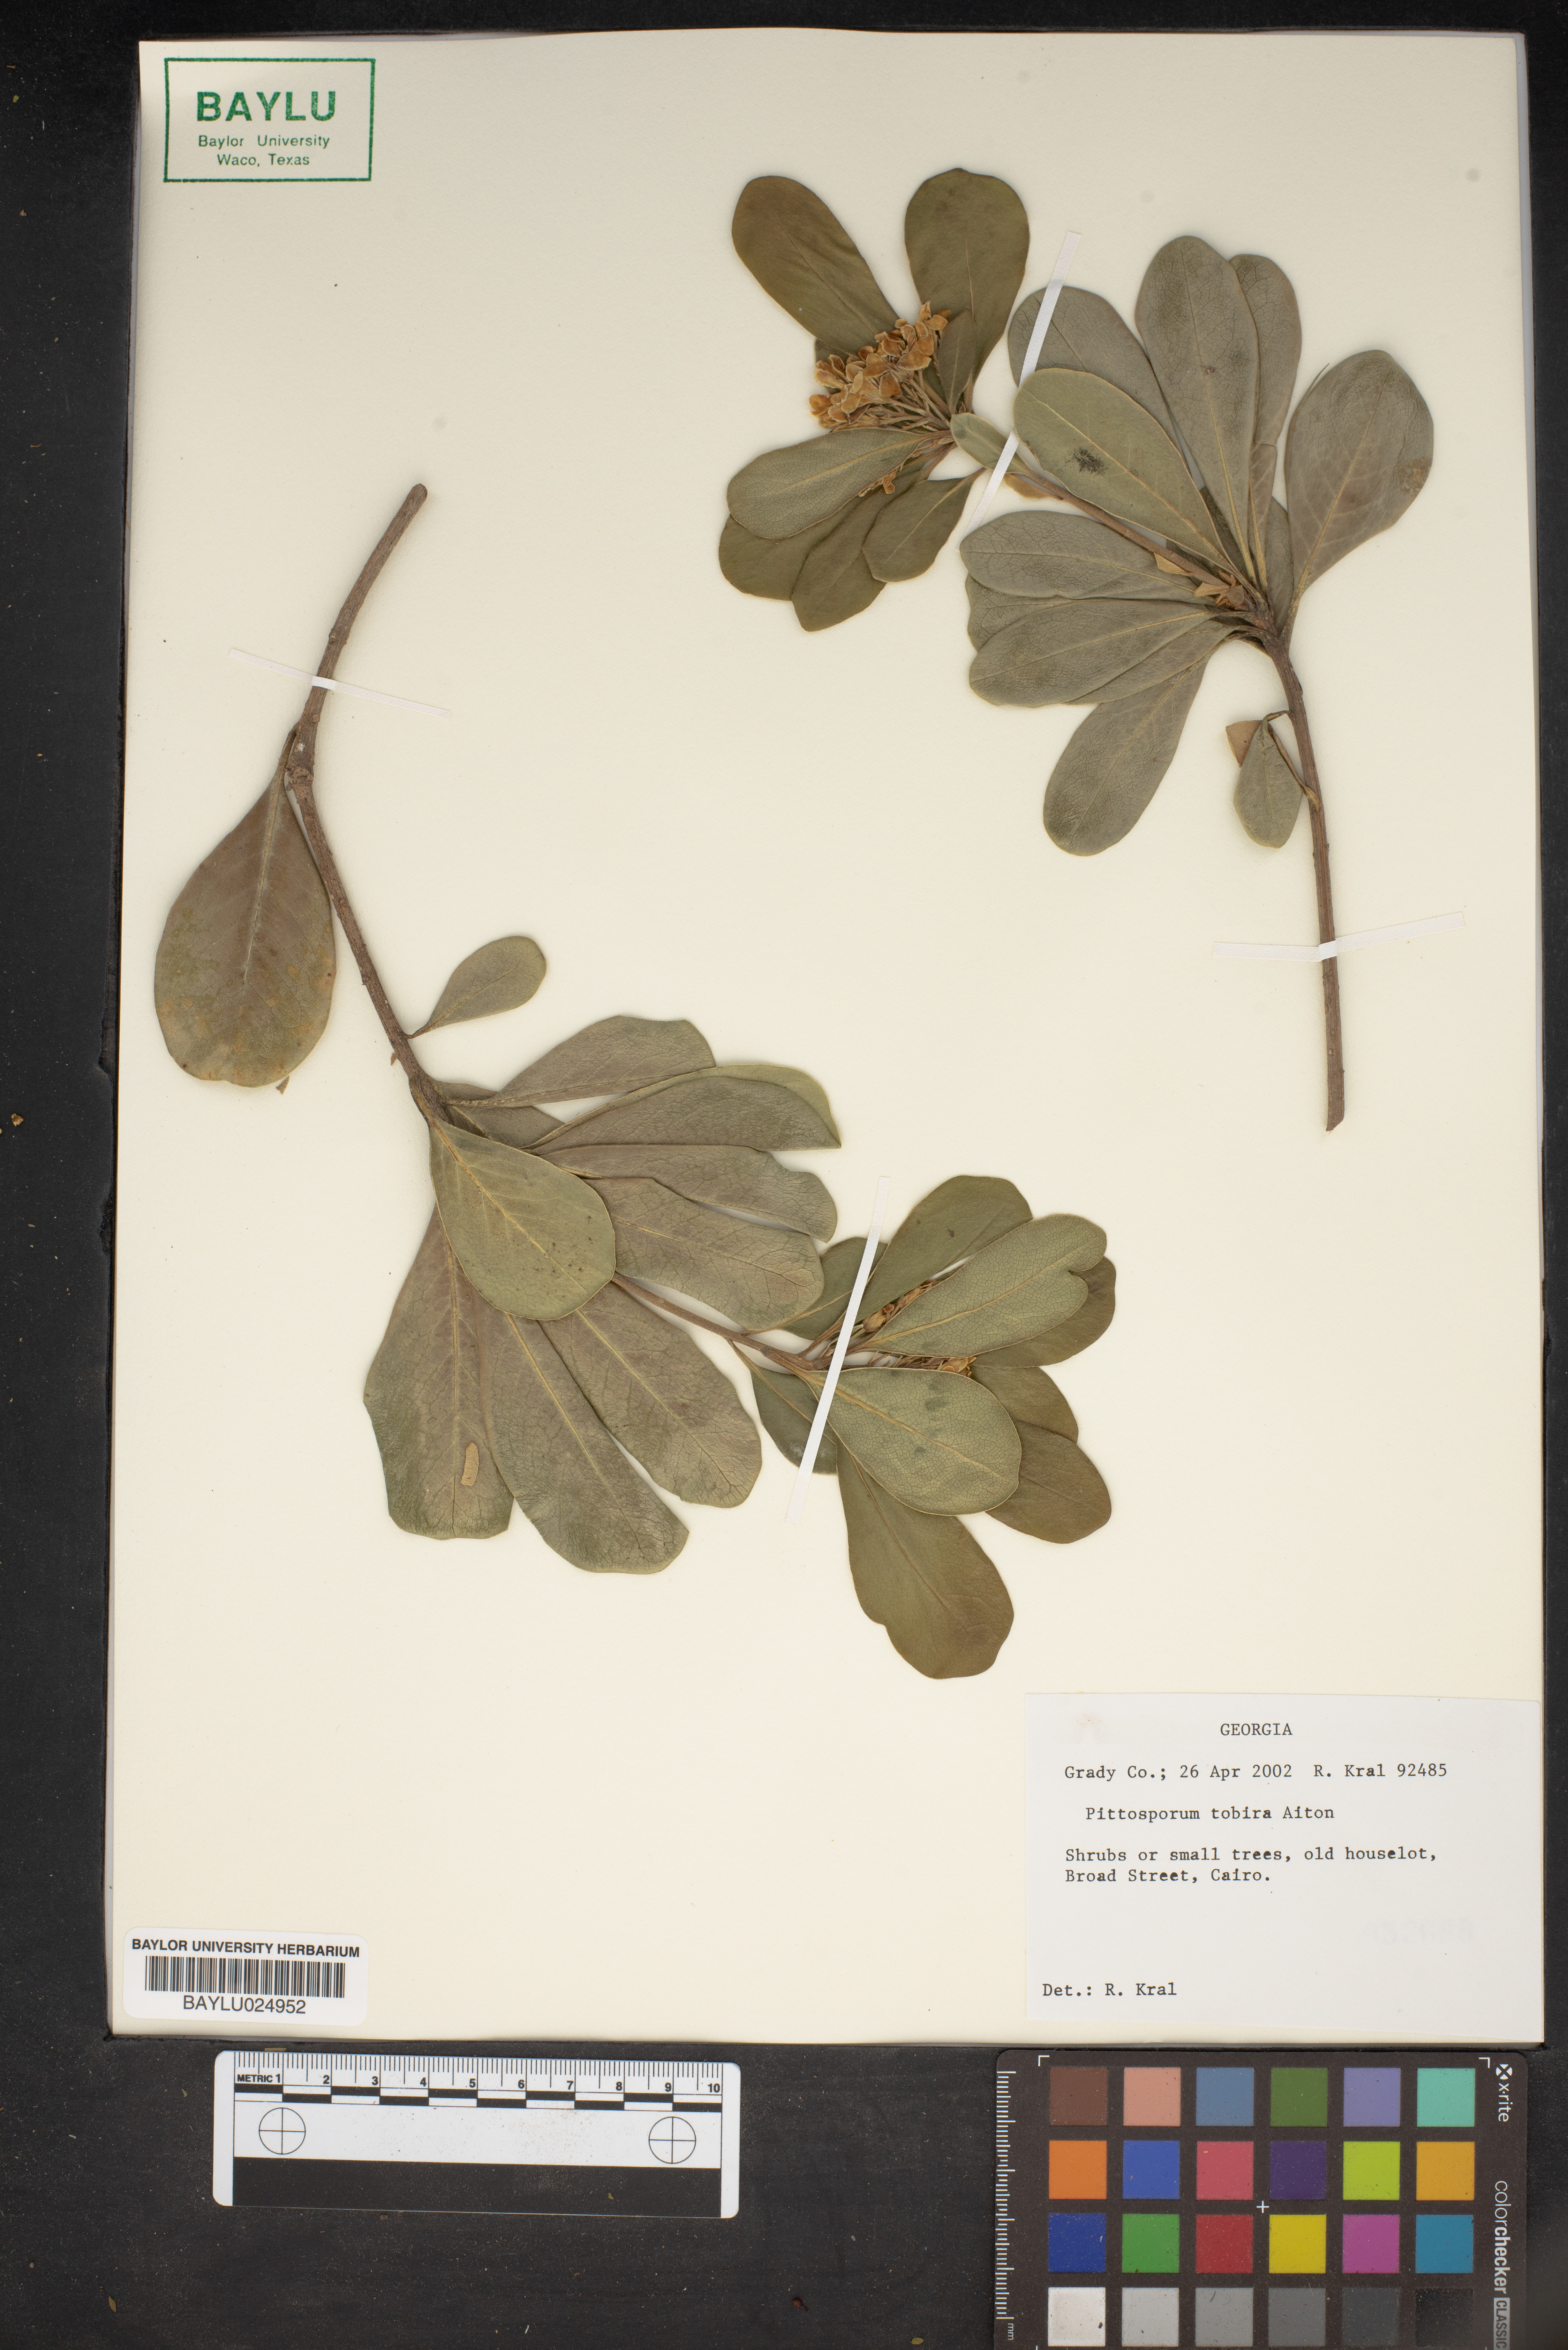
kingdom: Plantae
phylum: Tracheophyta
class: Magnoliopsida
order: Apiales
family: Pittosporaceae
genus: Pittosporum
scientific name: Pittosporum tobira
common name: Japanese cheesewood
